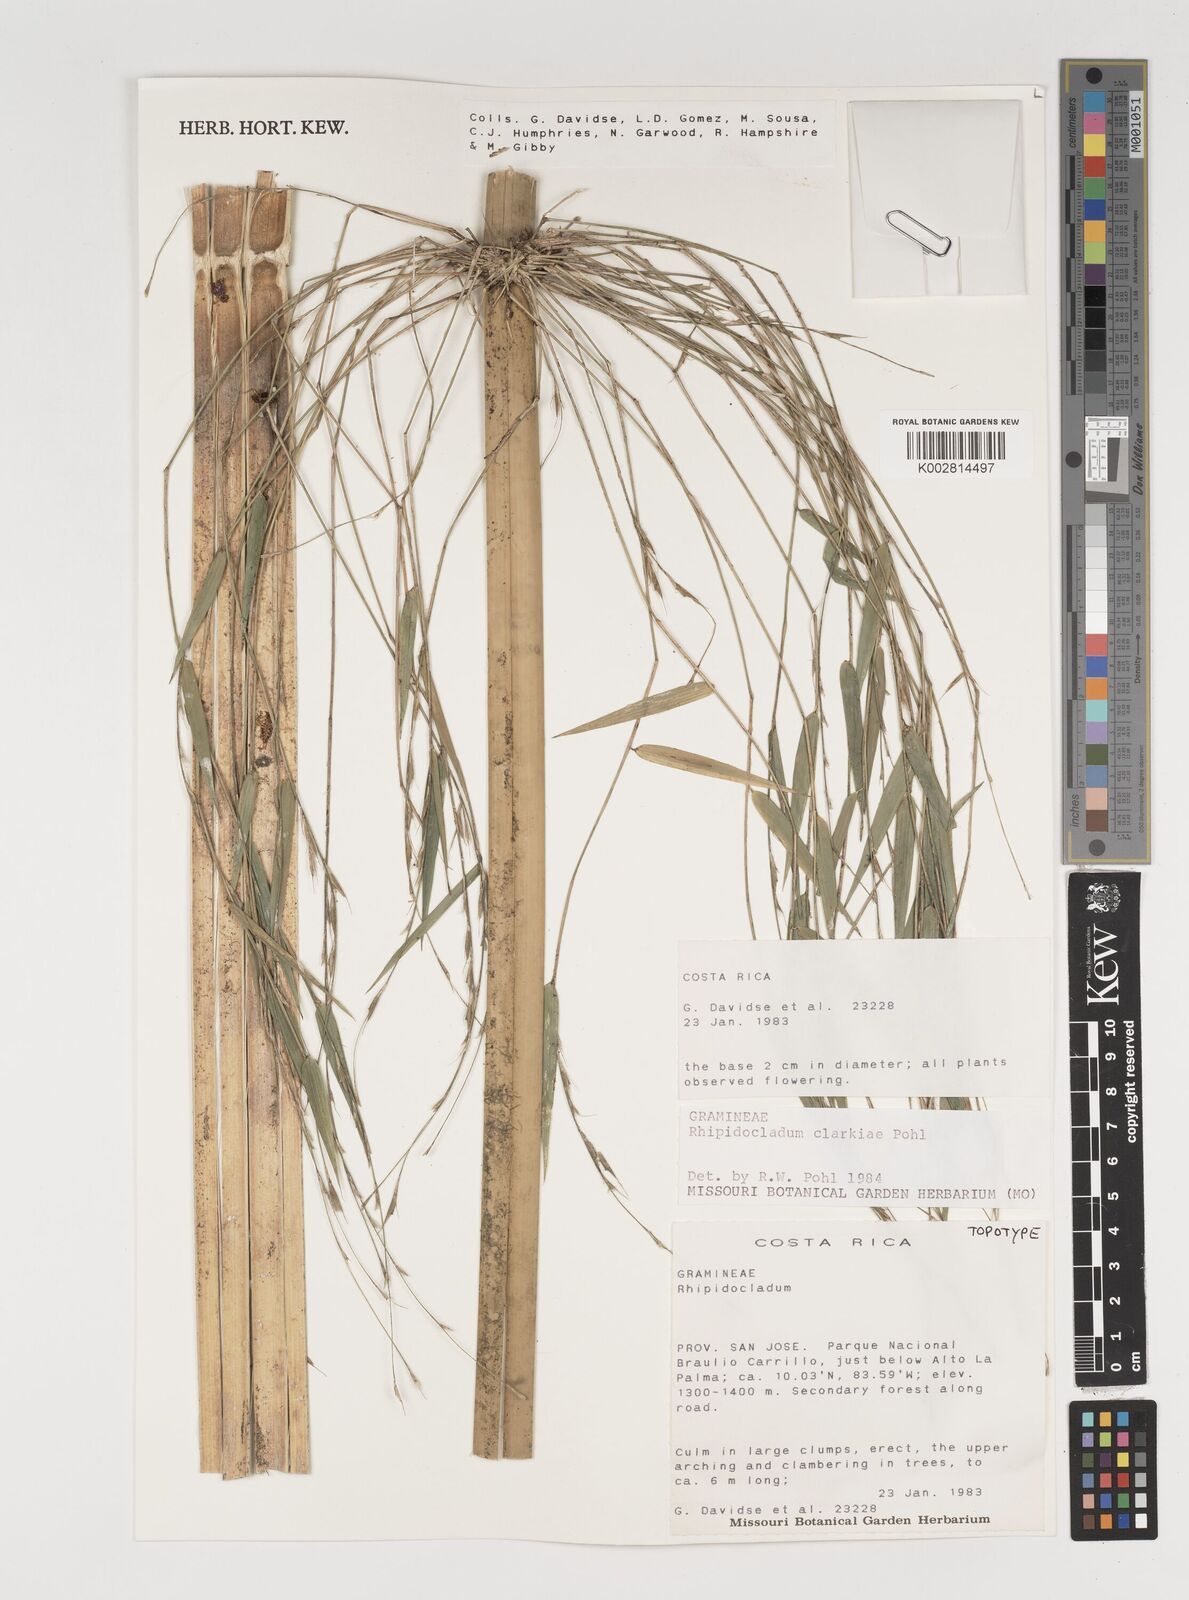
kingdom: Plantae
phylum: Tracheophyta
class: Liliopsida
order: Poales
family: Poaceae
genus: Rhipidocladum
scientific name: Rhipidocladum clarkiae
